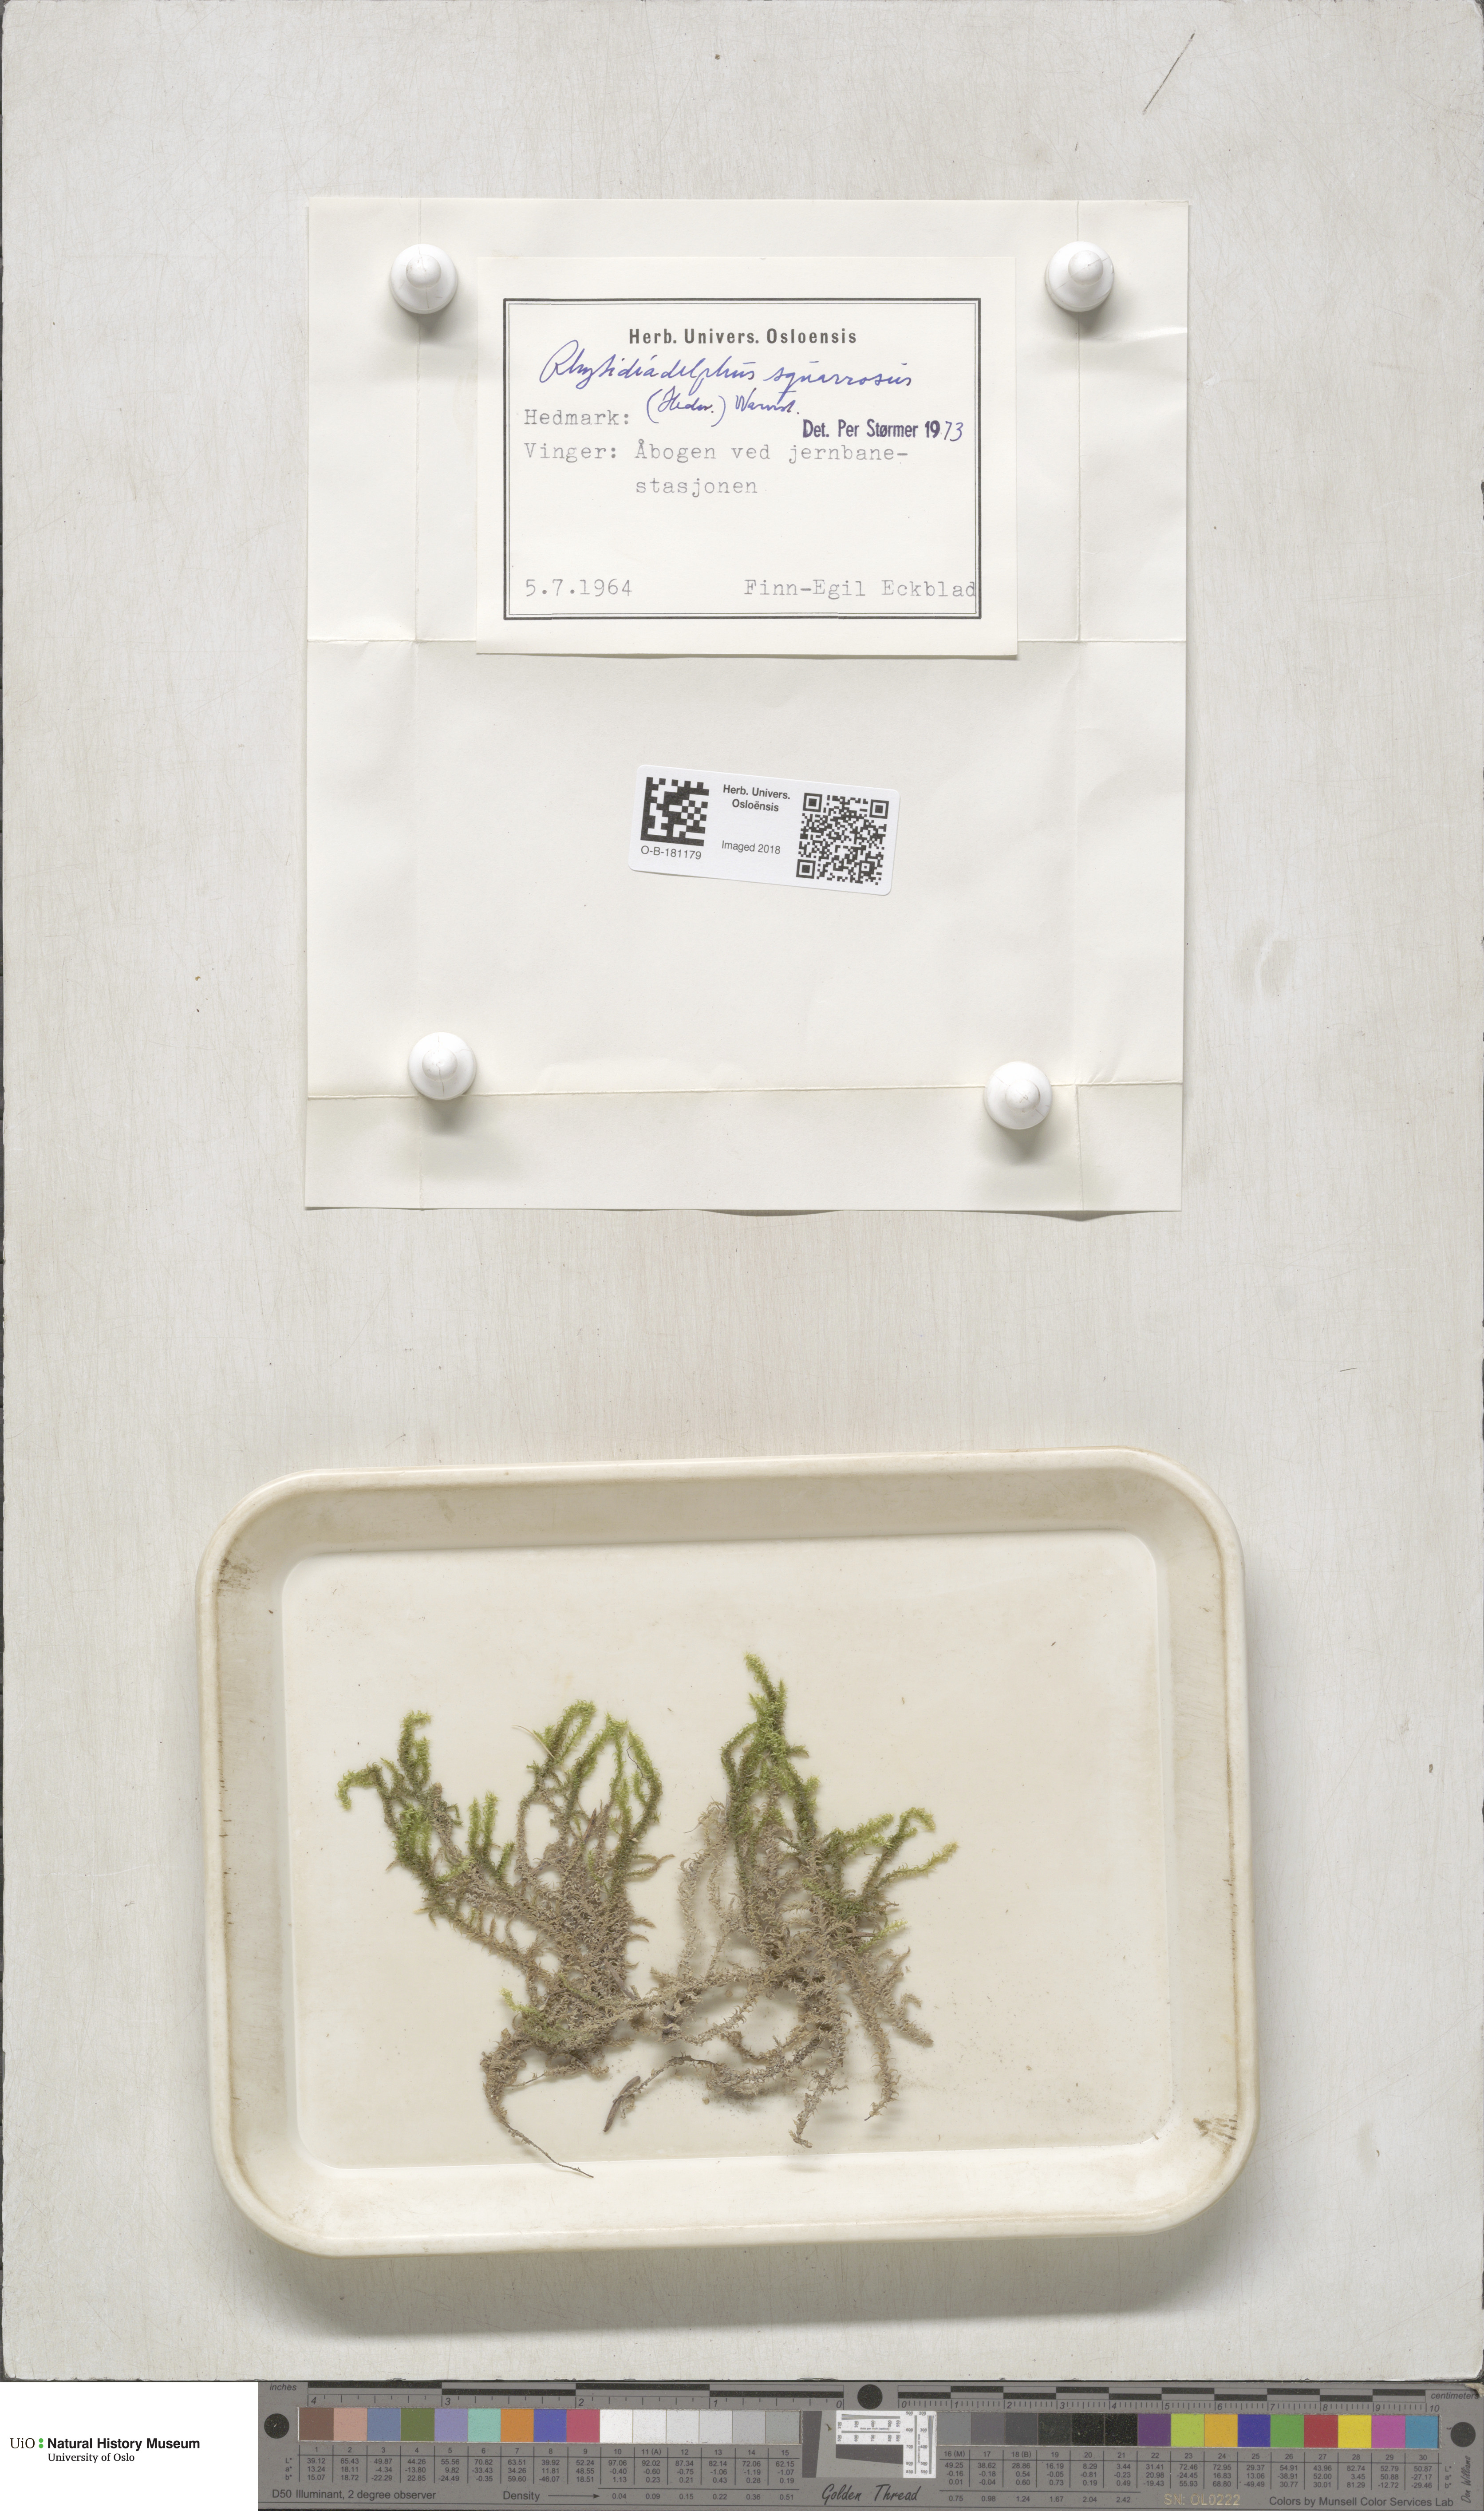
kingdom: Plantae
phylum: Bryophyta
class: Bryopsida
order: Hypnales
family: Hylocomiaceae
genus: Rhytidiadelphus
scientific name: Rhytidiadelphus squarrosus
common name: Springy turf-moss
